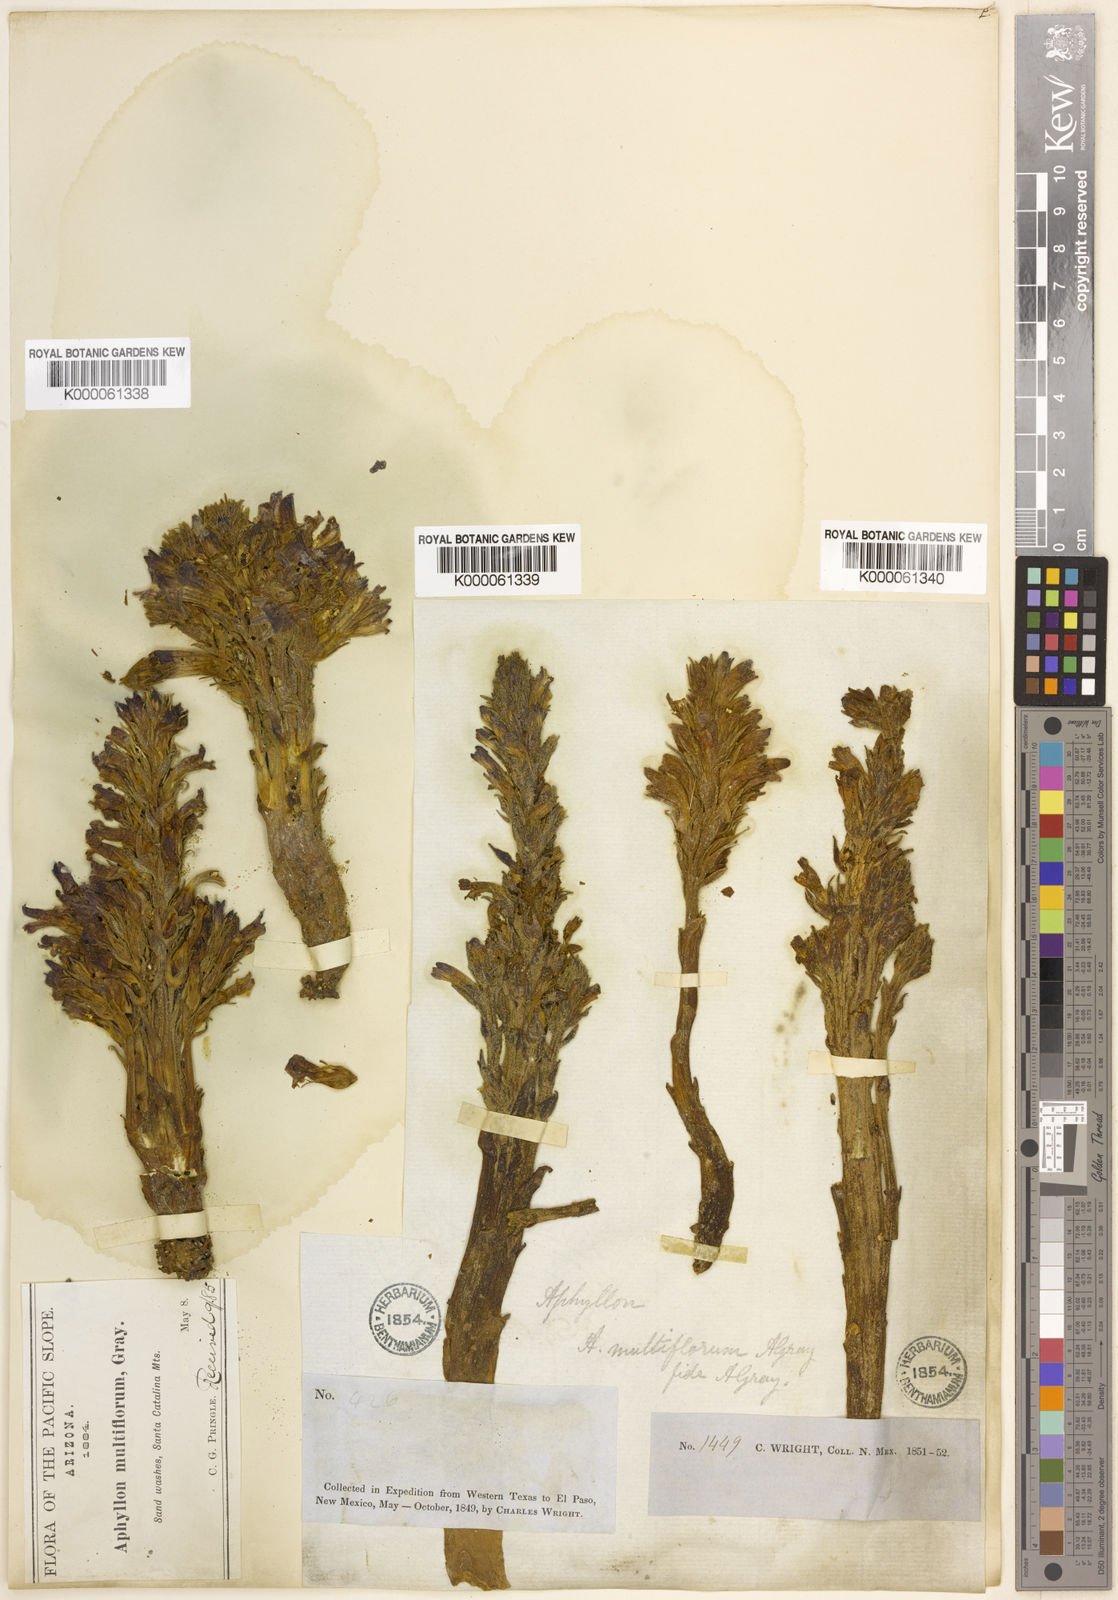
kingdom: Plantae
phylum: Tracheophyta
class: Magnoliopsida
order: Lamiales
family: Orobanchaceae
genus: Aphyllon
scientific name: Aphyllon multiflorum
